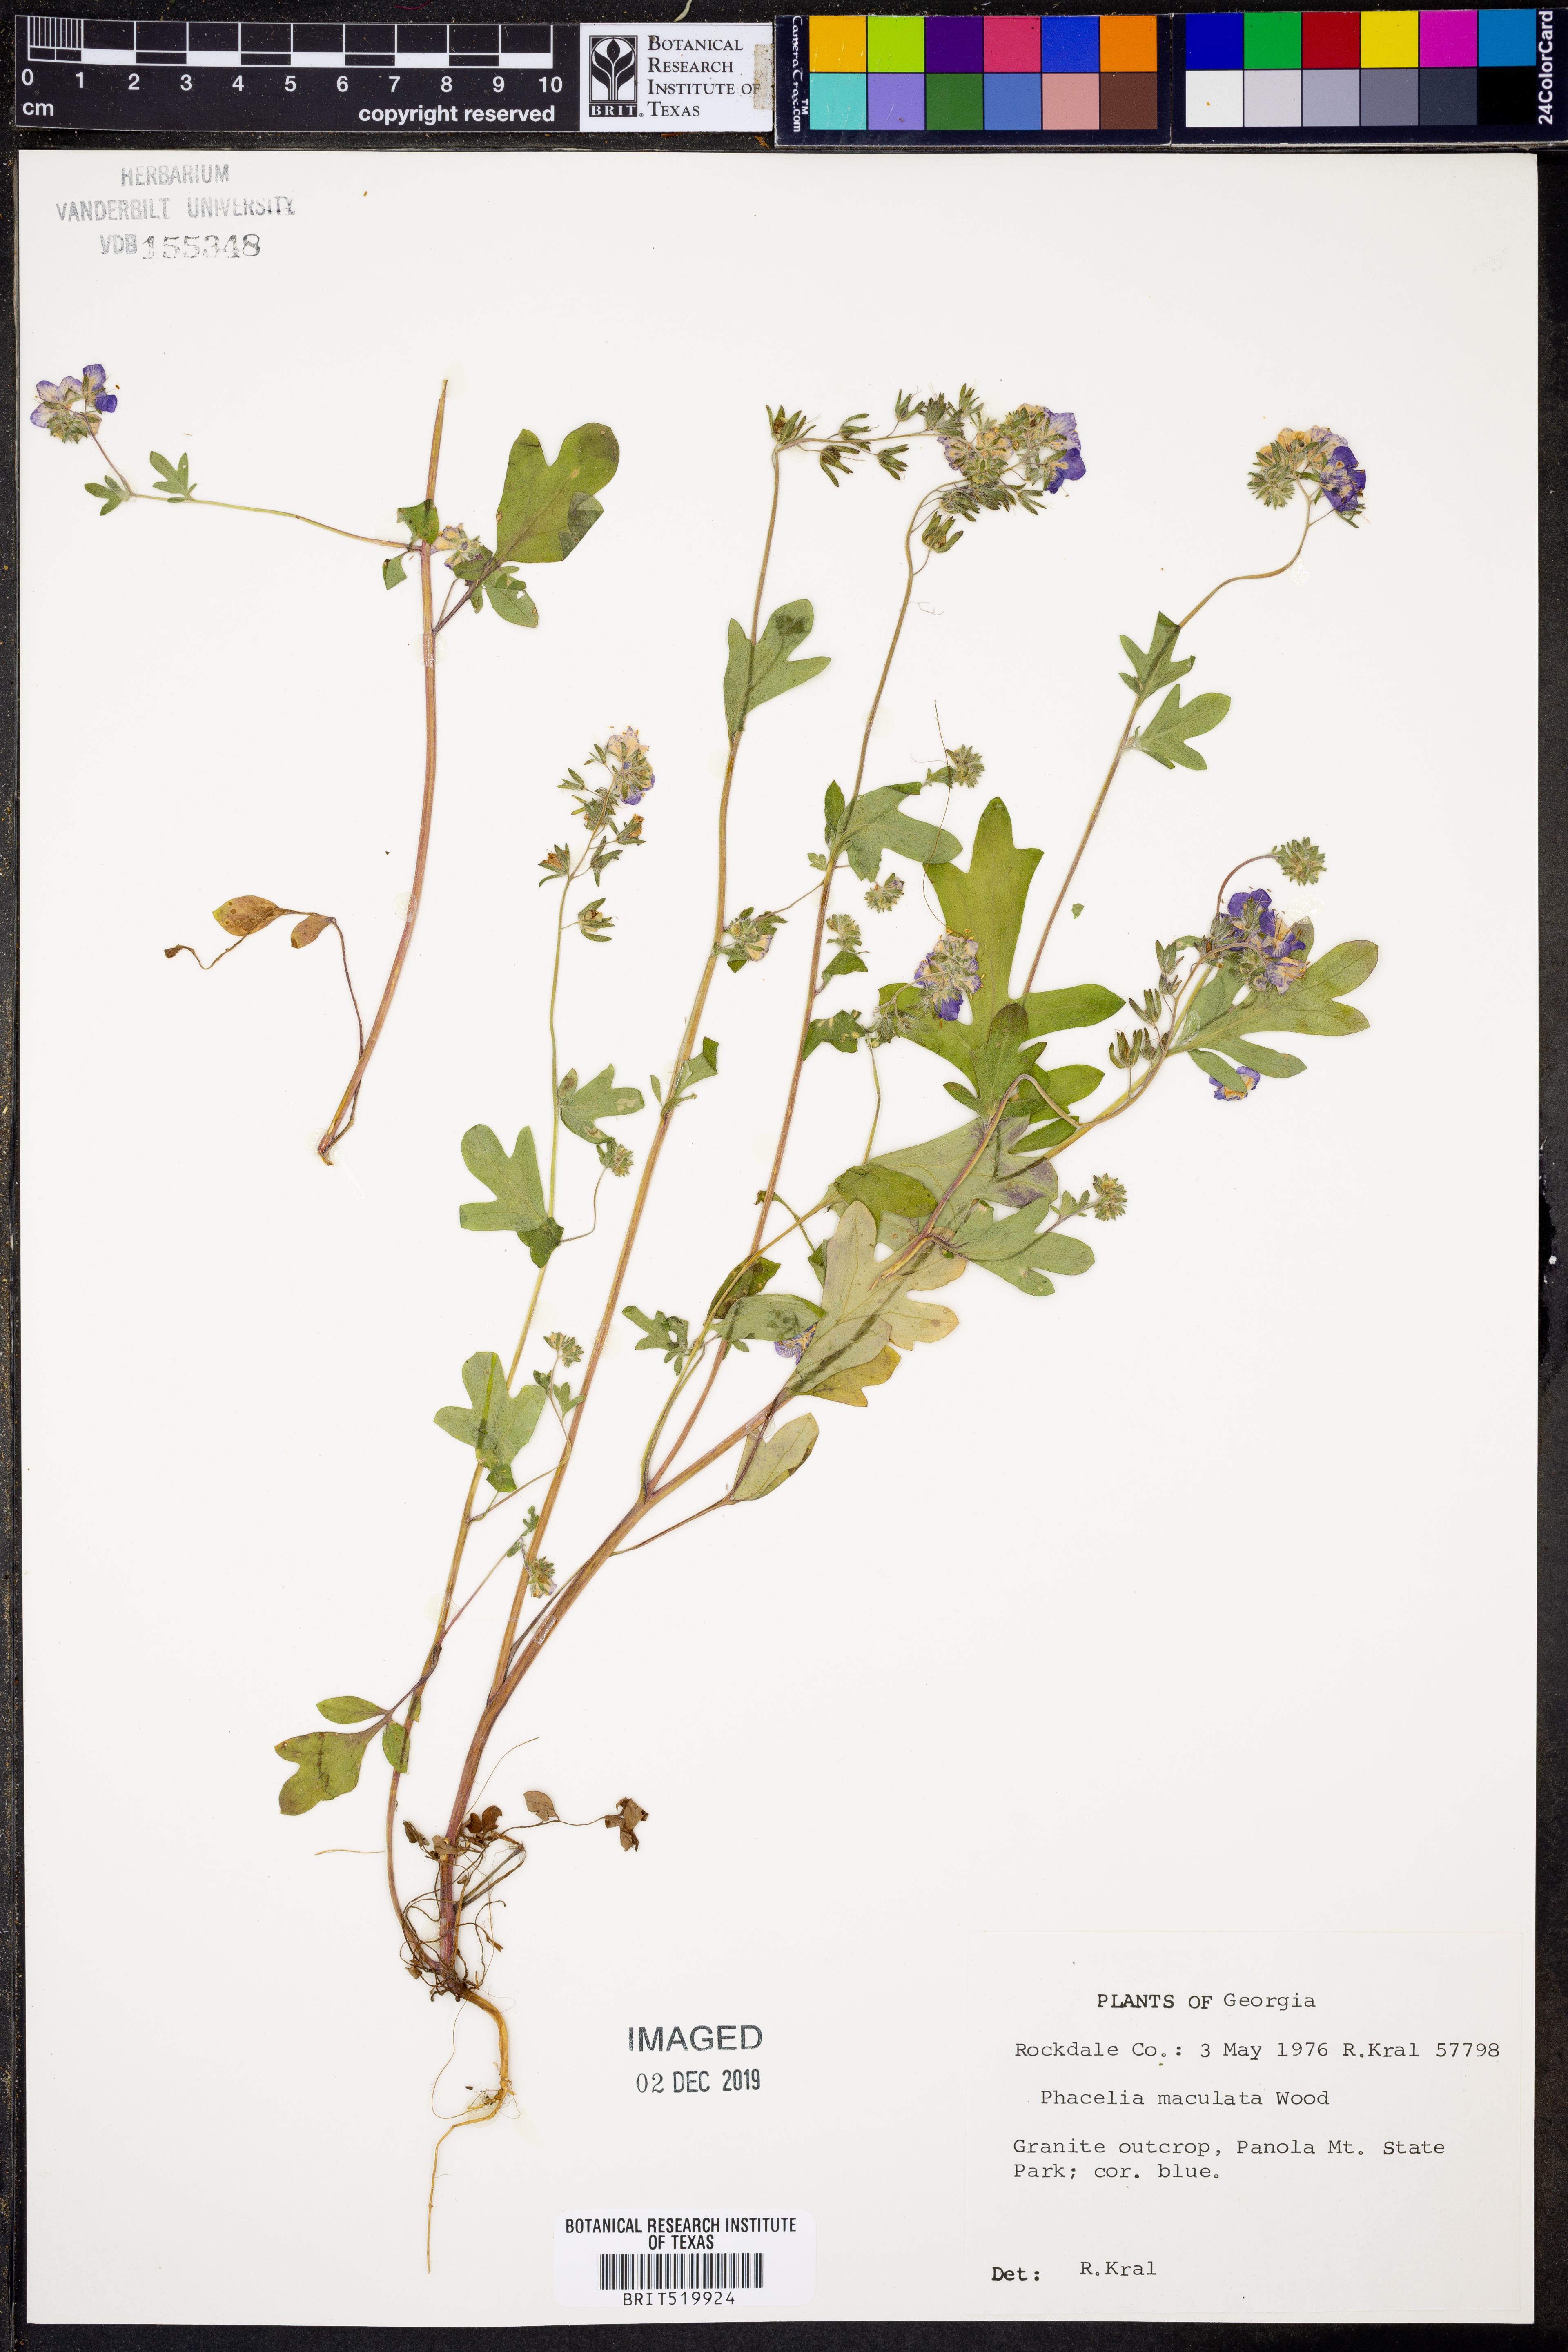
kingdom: Plantae
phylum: Tracheophyta
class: Magnoliopsida
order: Boraginales
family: Hydrophyllaceae
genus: Phacelia
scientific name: Phacelia maculata
